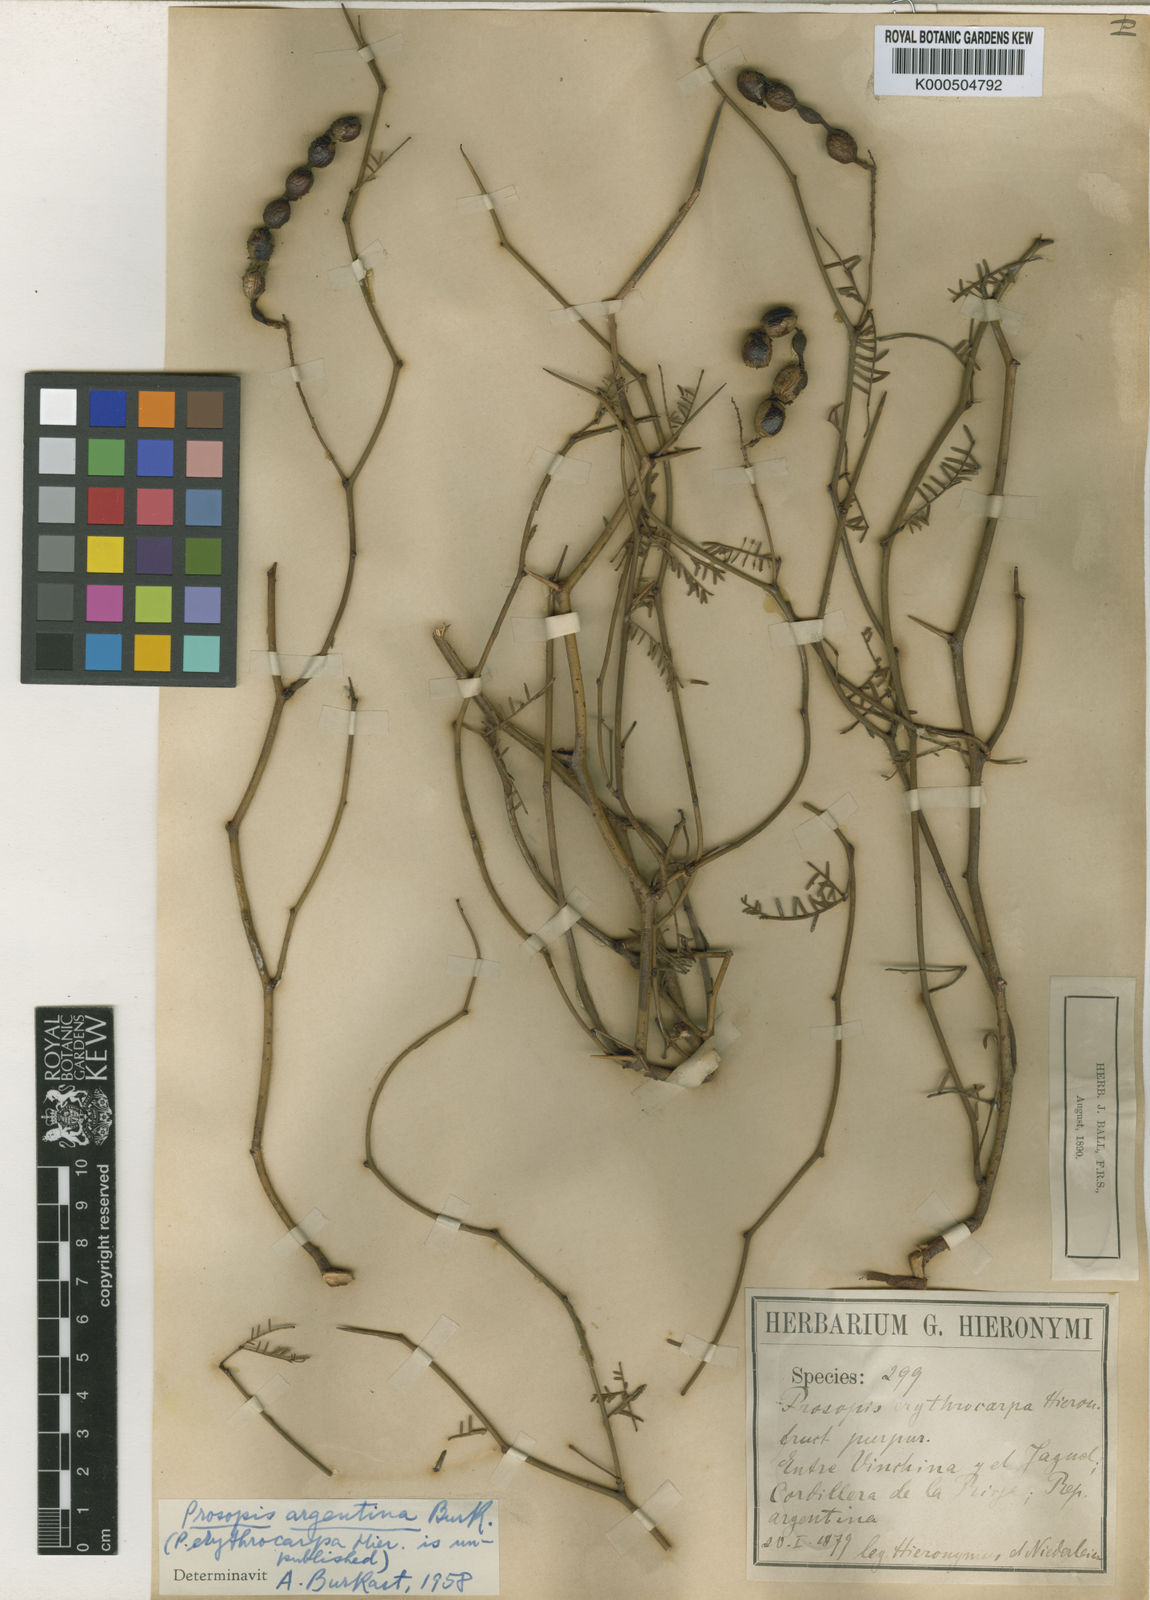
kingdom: Plantae
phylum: Tracheophyta
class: Magnoliopsida
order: Fabales
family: Fabaceae
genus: Prosopis
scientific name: Prosopis argentina
